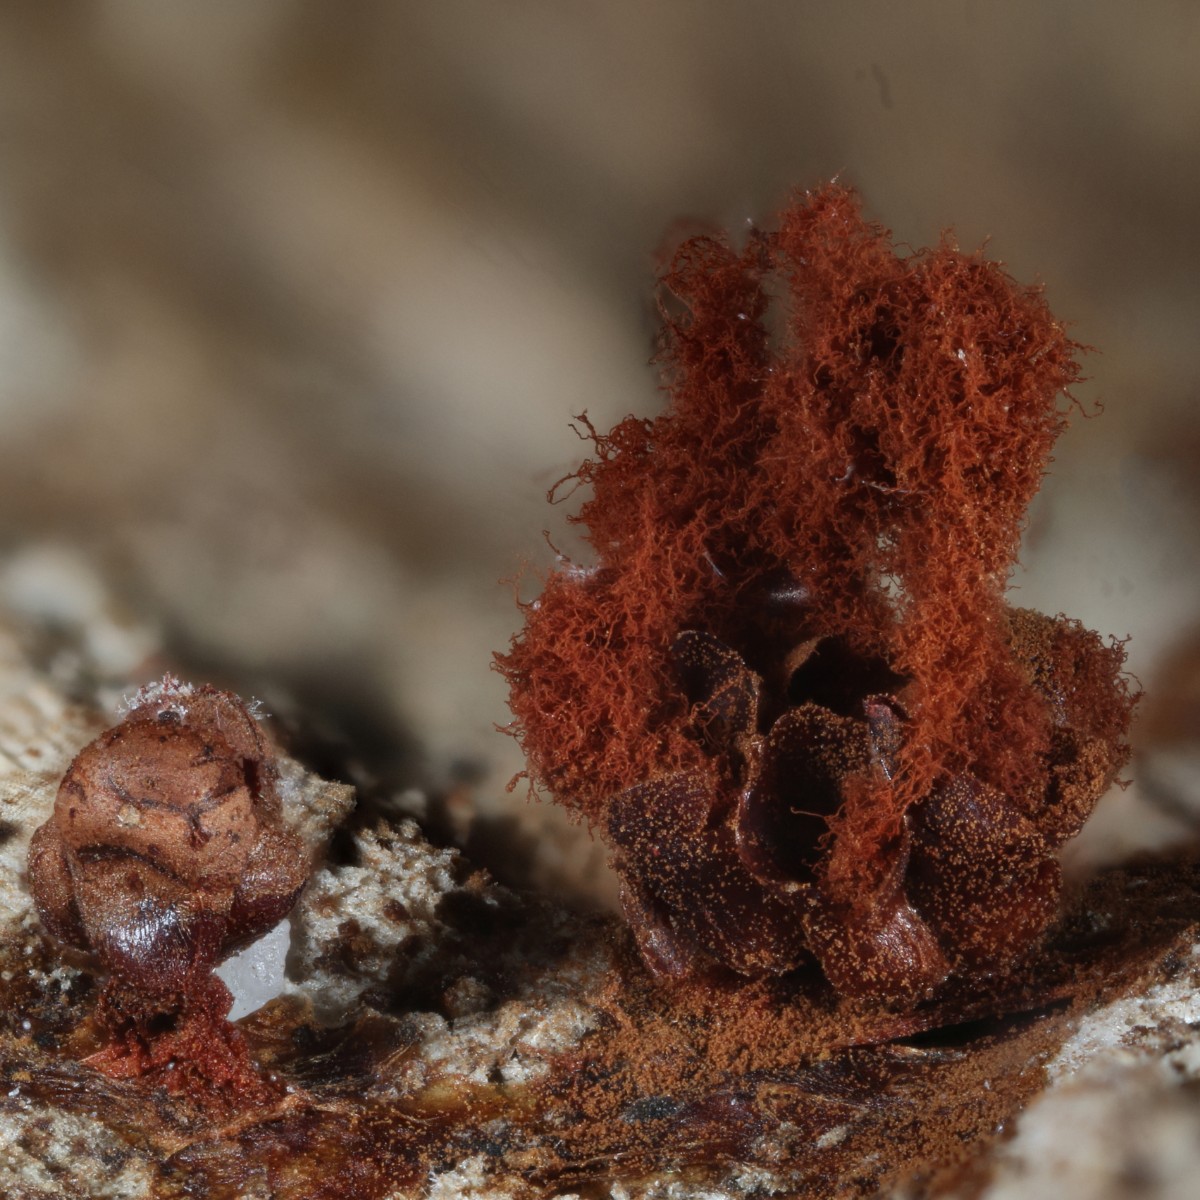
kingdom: Protozoa
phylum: Mycetozoa
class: Myxomycetes
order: Trichiales
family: Trichiaceae
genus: Metatrichia
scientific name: Metatrichia vesparia
